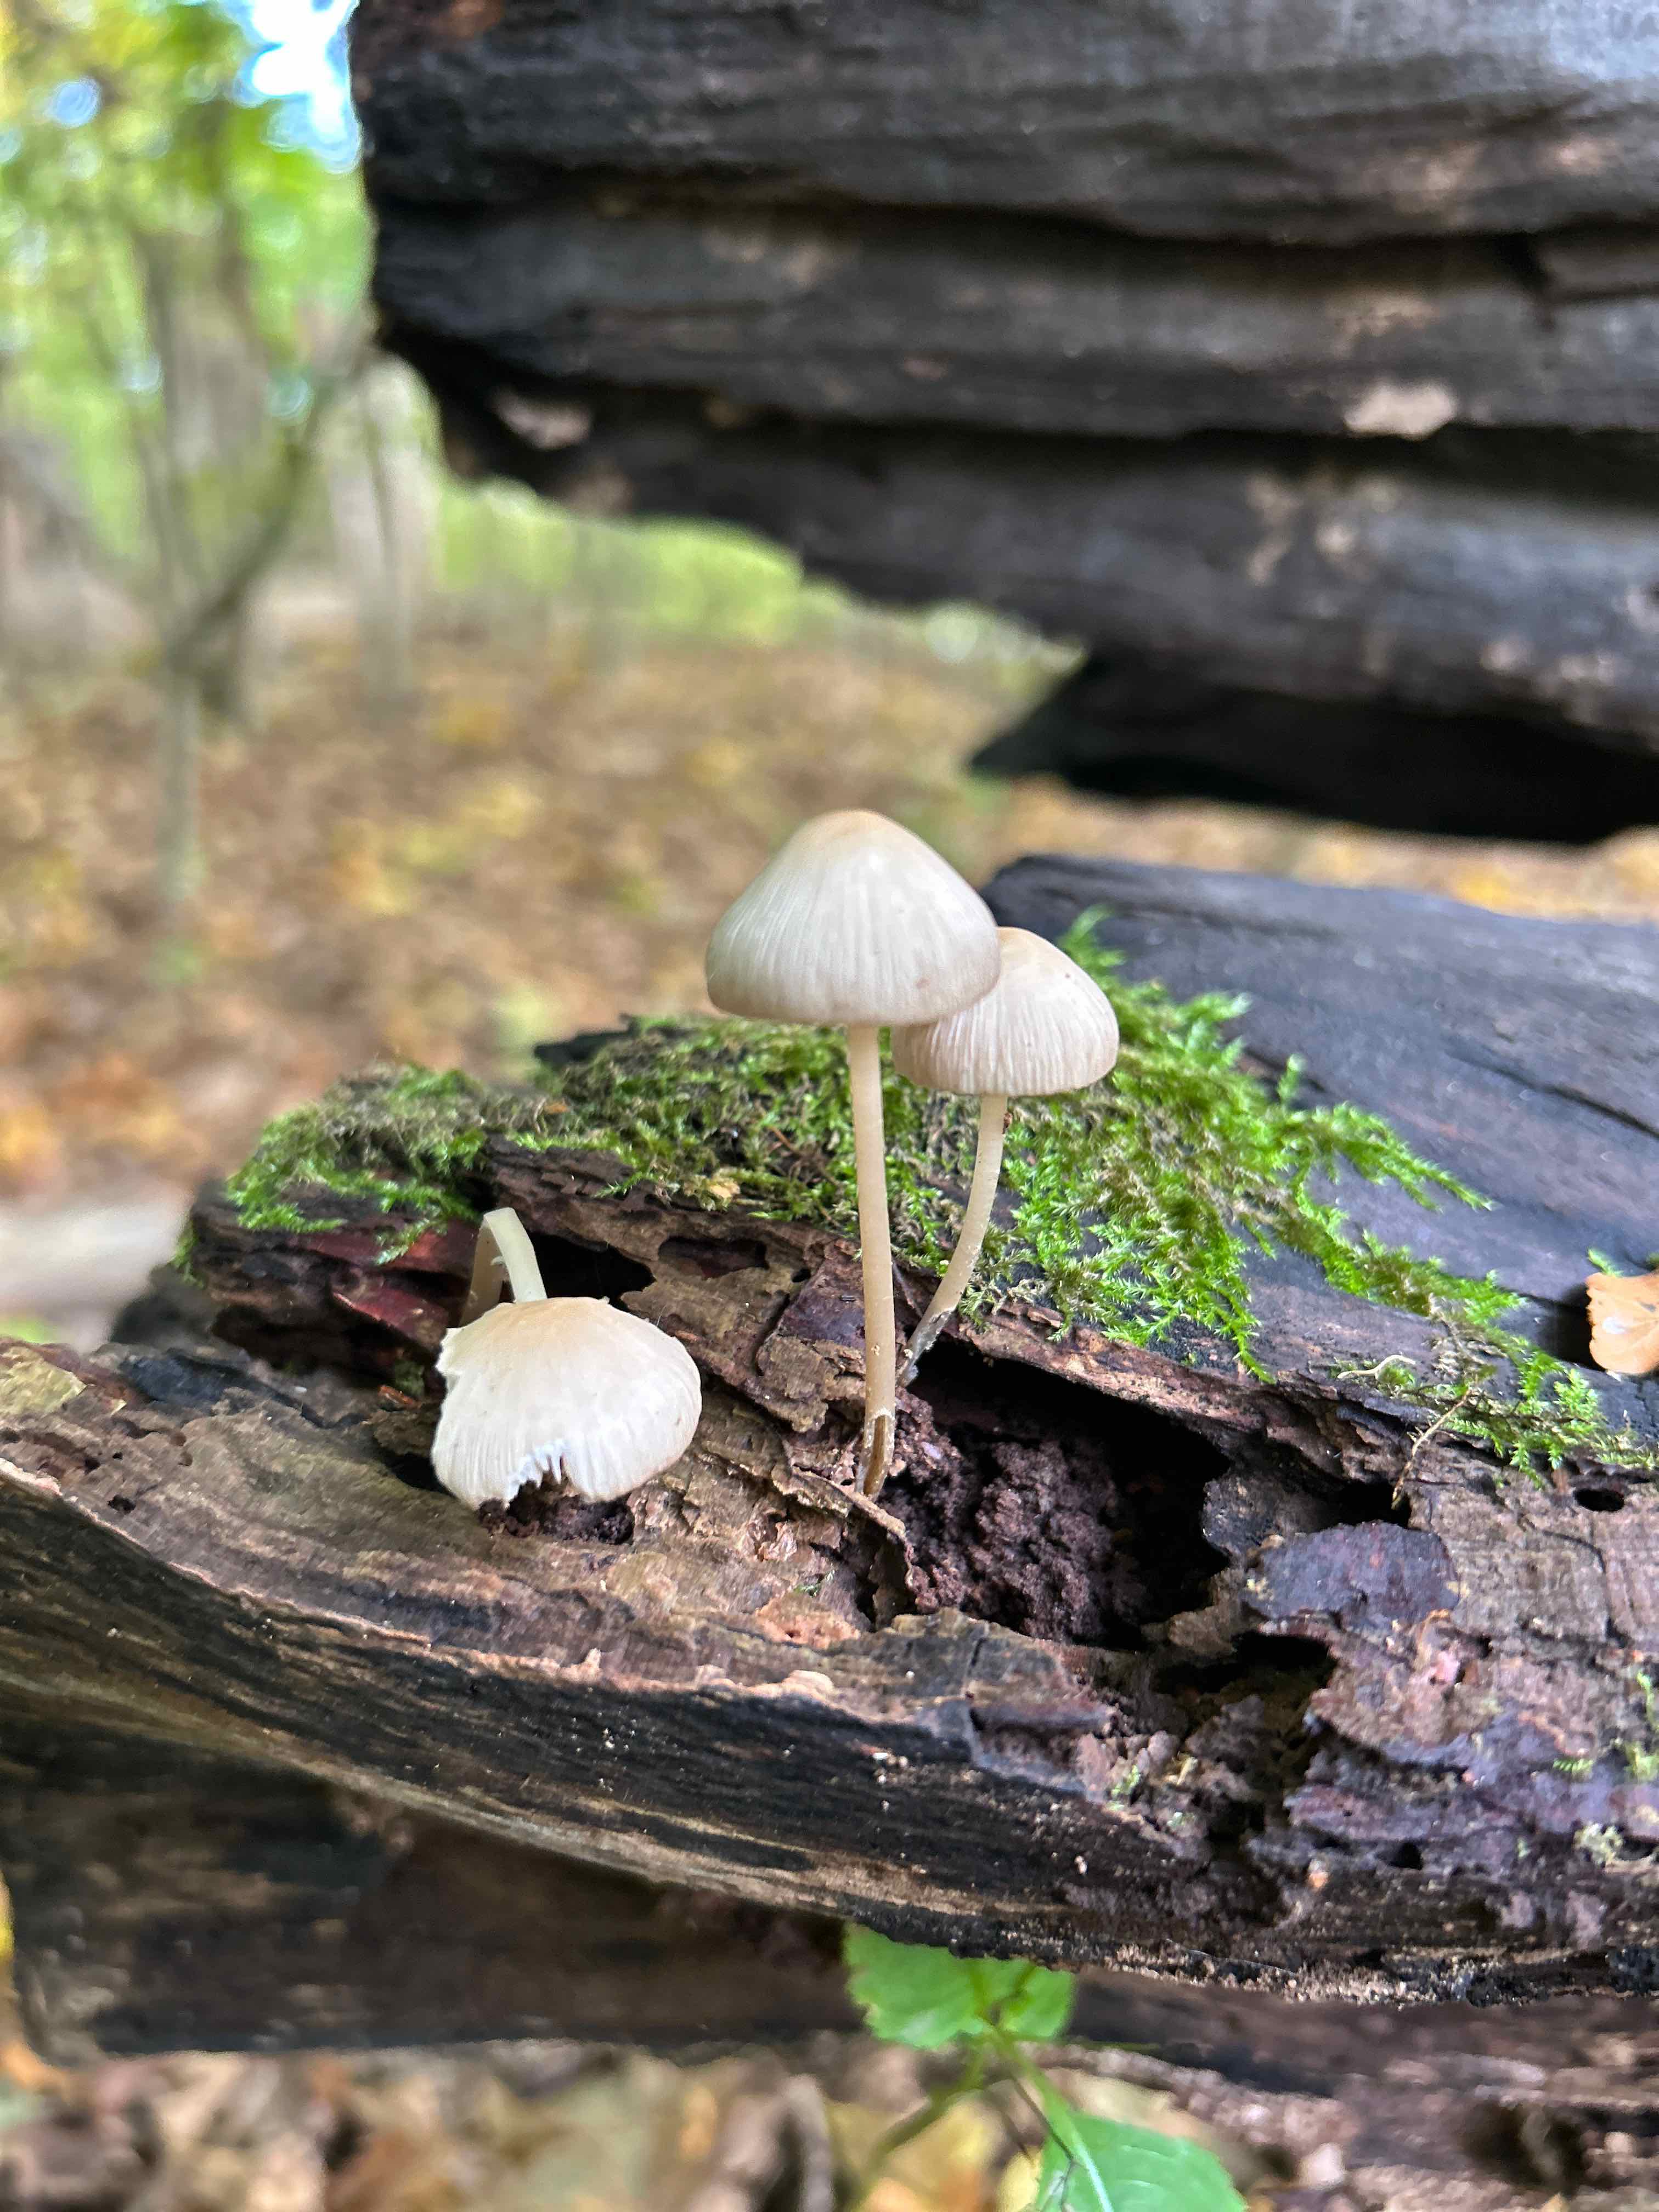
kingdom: Fungi
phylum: Basidiomycota
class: Agaricomycetes
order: Agaricales
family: Mycenaceae
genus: Mycena
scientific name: Mycena galericulata
